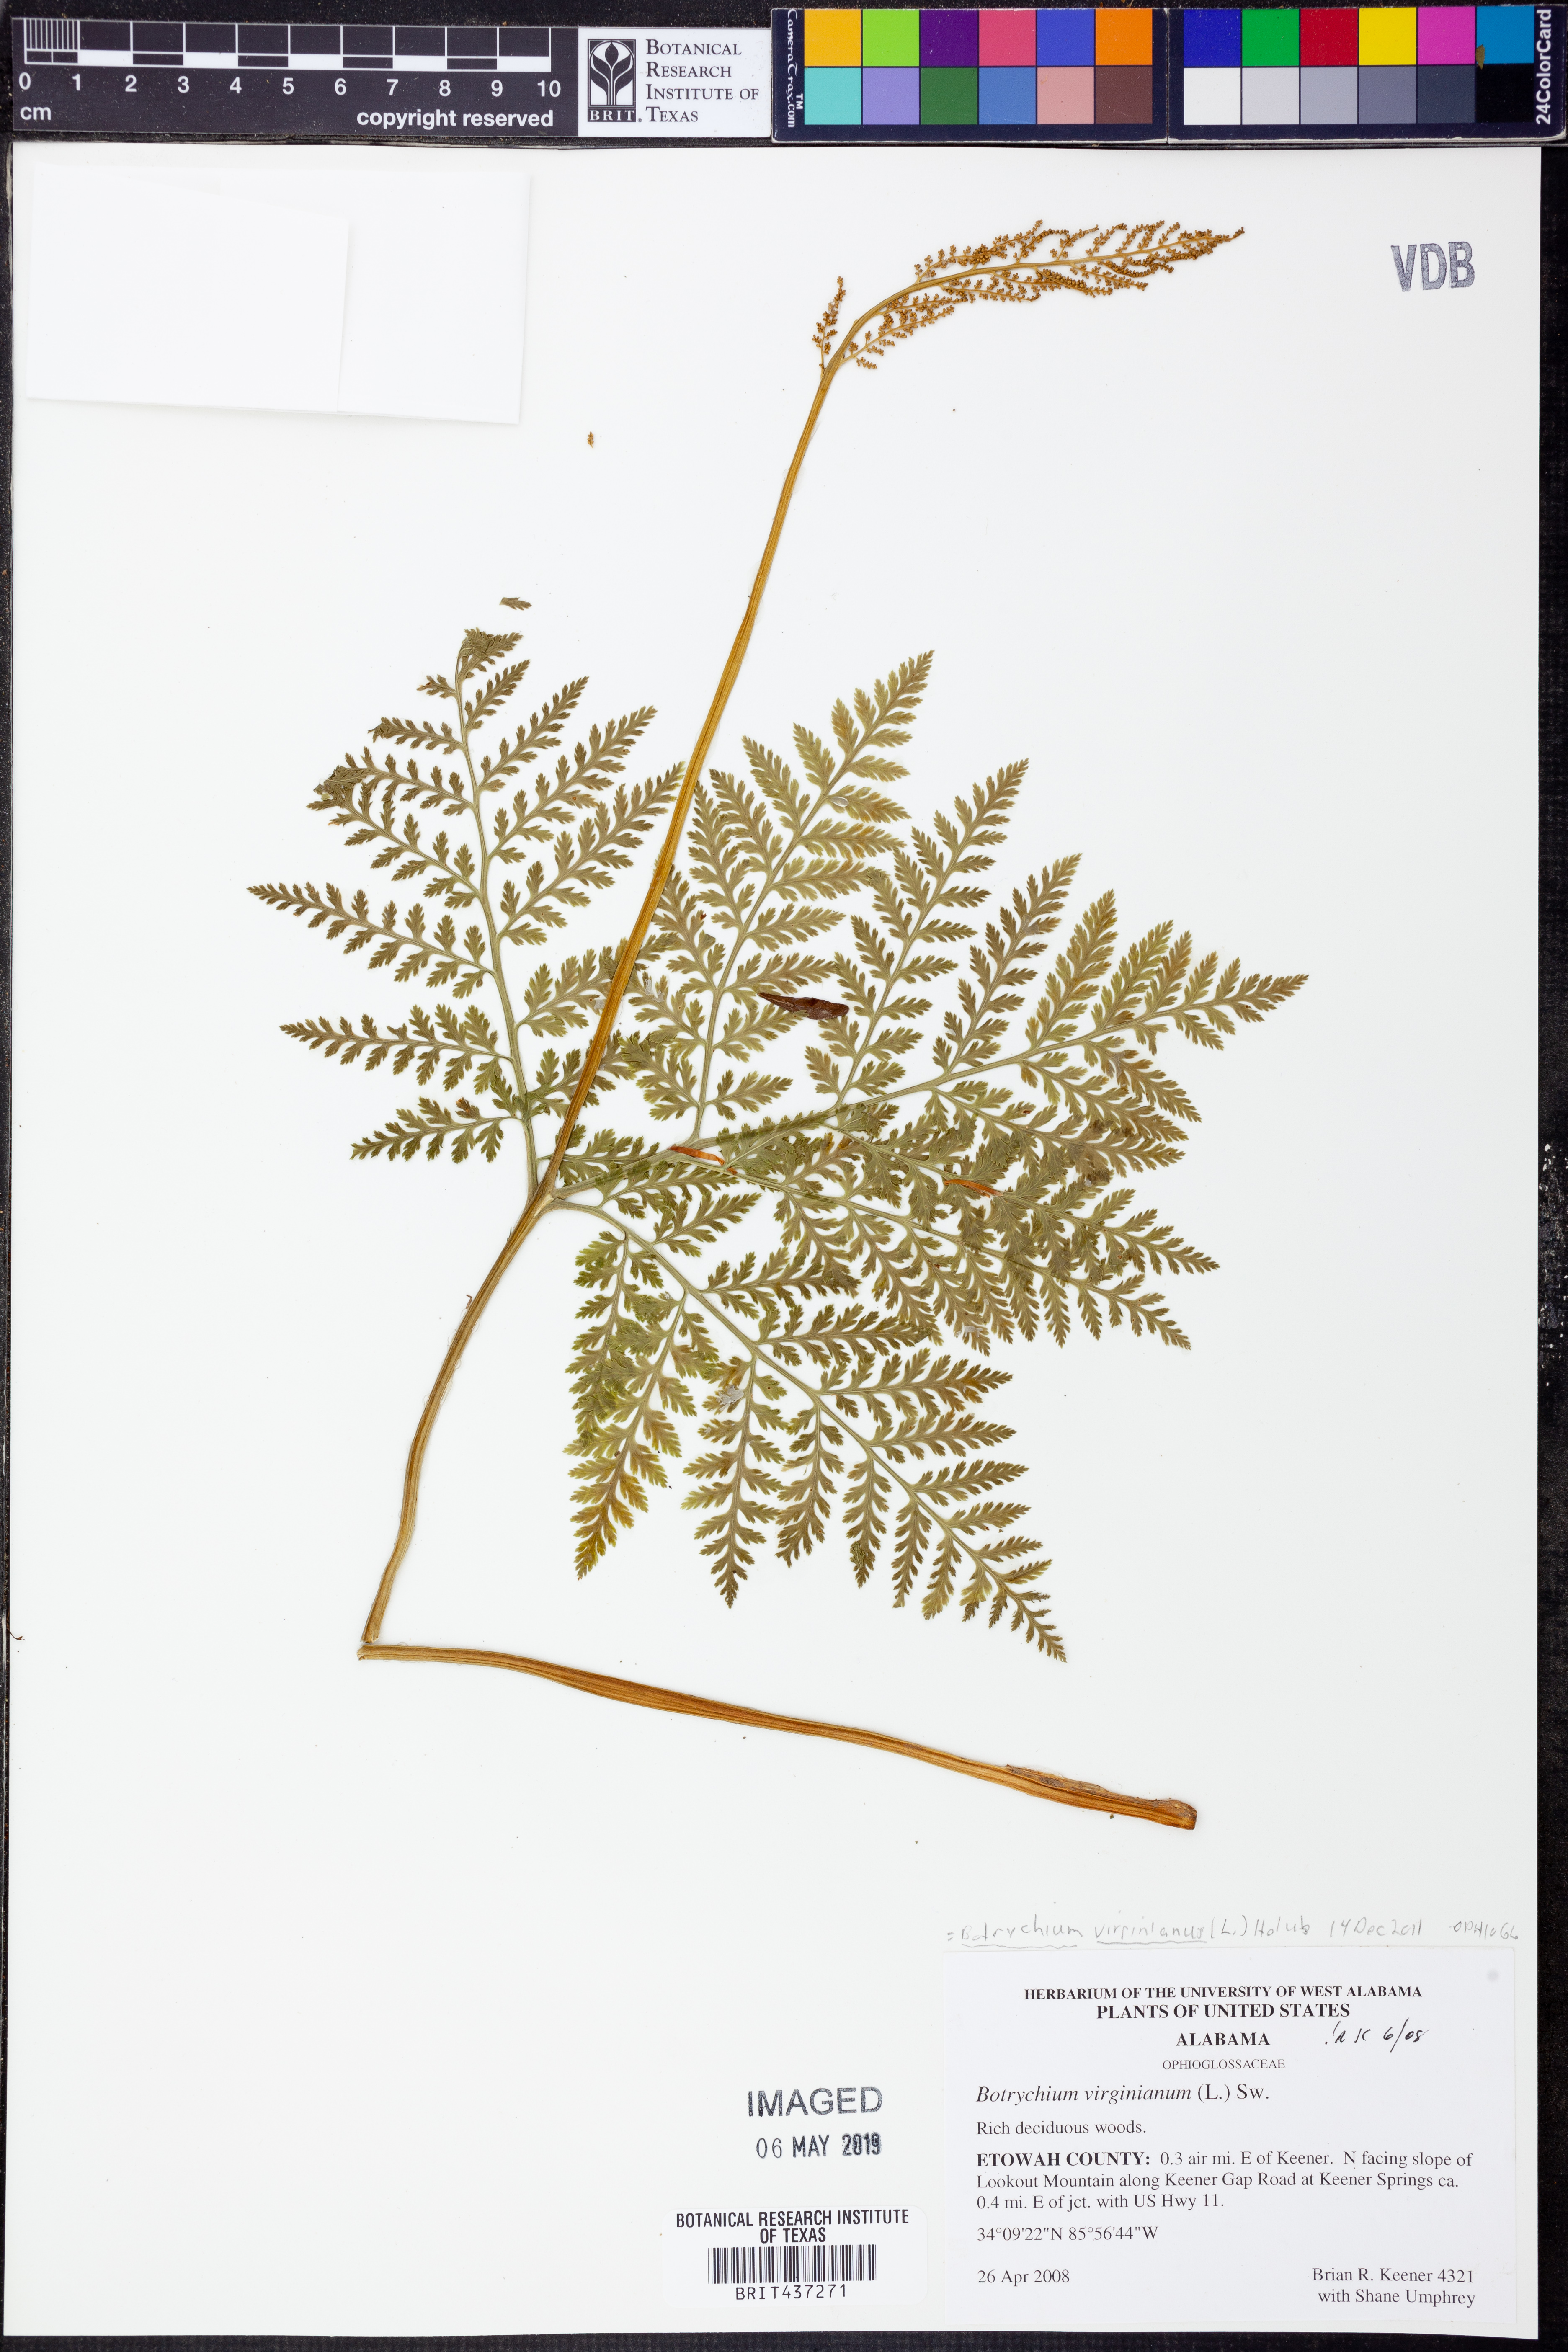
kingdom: Plantae
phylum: Tracheophyta
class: Polypodiopsida
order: Ophioglossales
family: Ophioglossaceae
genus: Botrypus
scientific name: Botrypus virginianus
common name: Common grapefern
